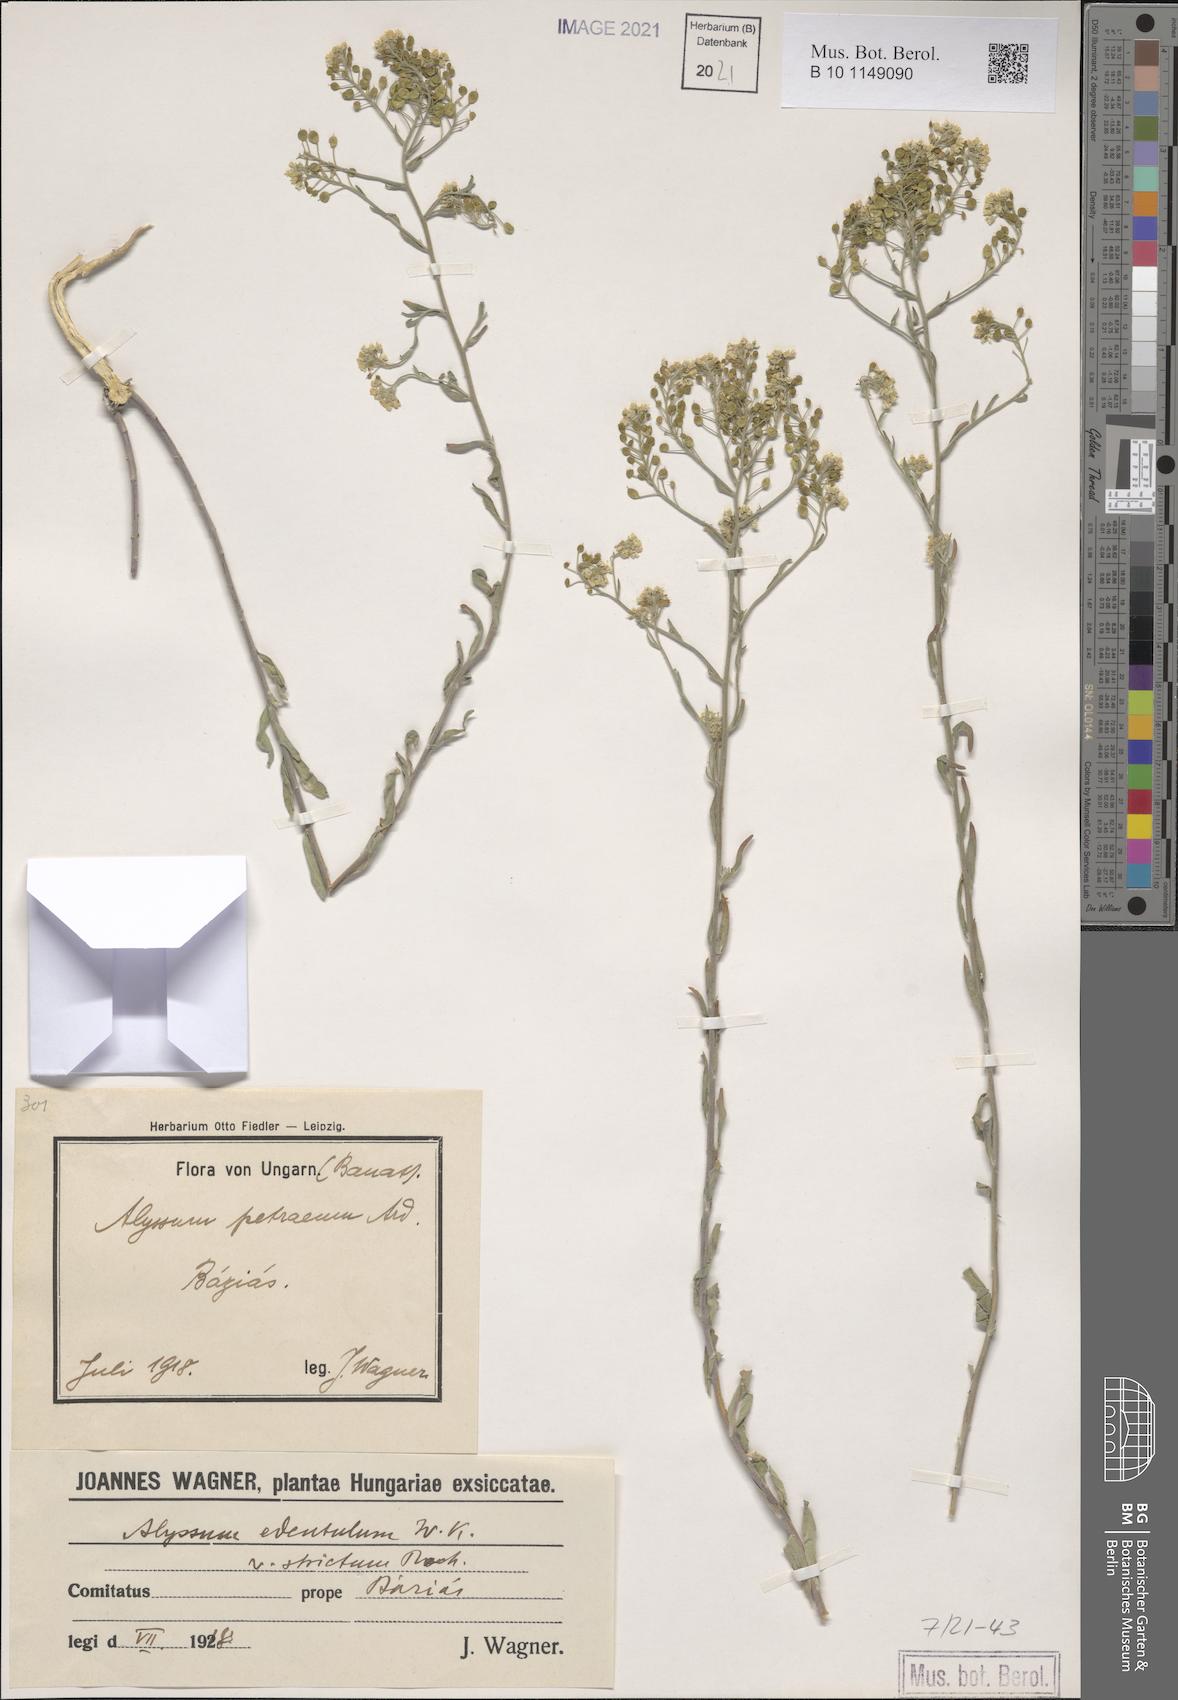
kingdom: Plantae
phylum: Tracheophyta
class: Magnoliopsida
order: Brassicales
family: Brassicaceae
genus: Aurinia
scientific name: Aurinia petraea
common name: Goldentuft
